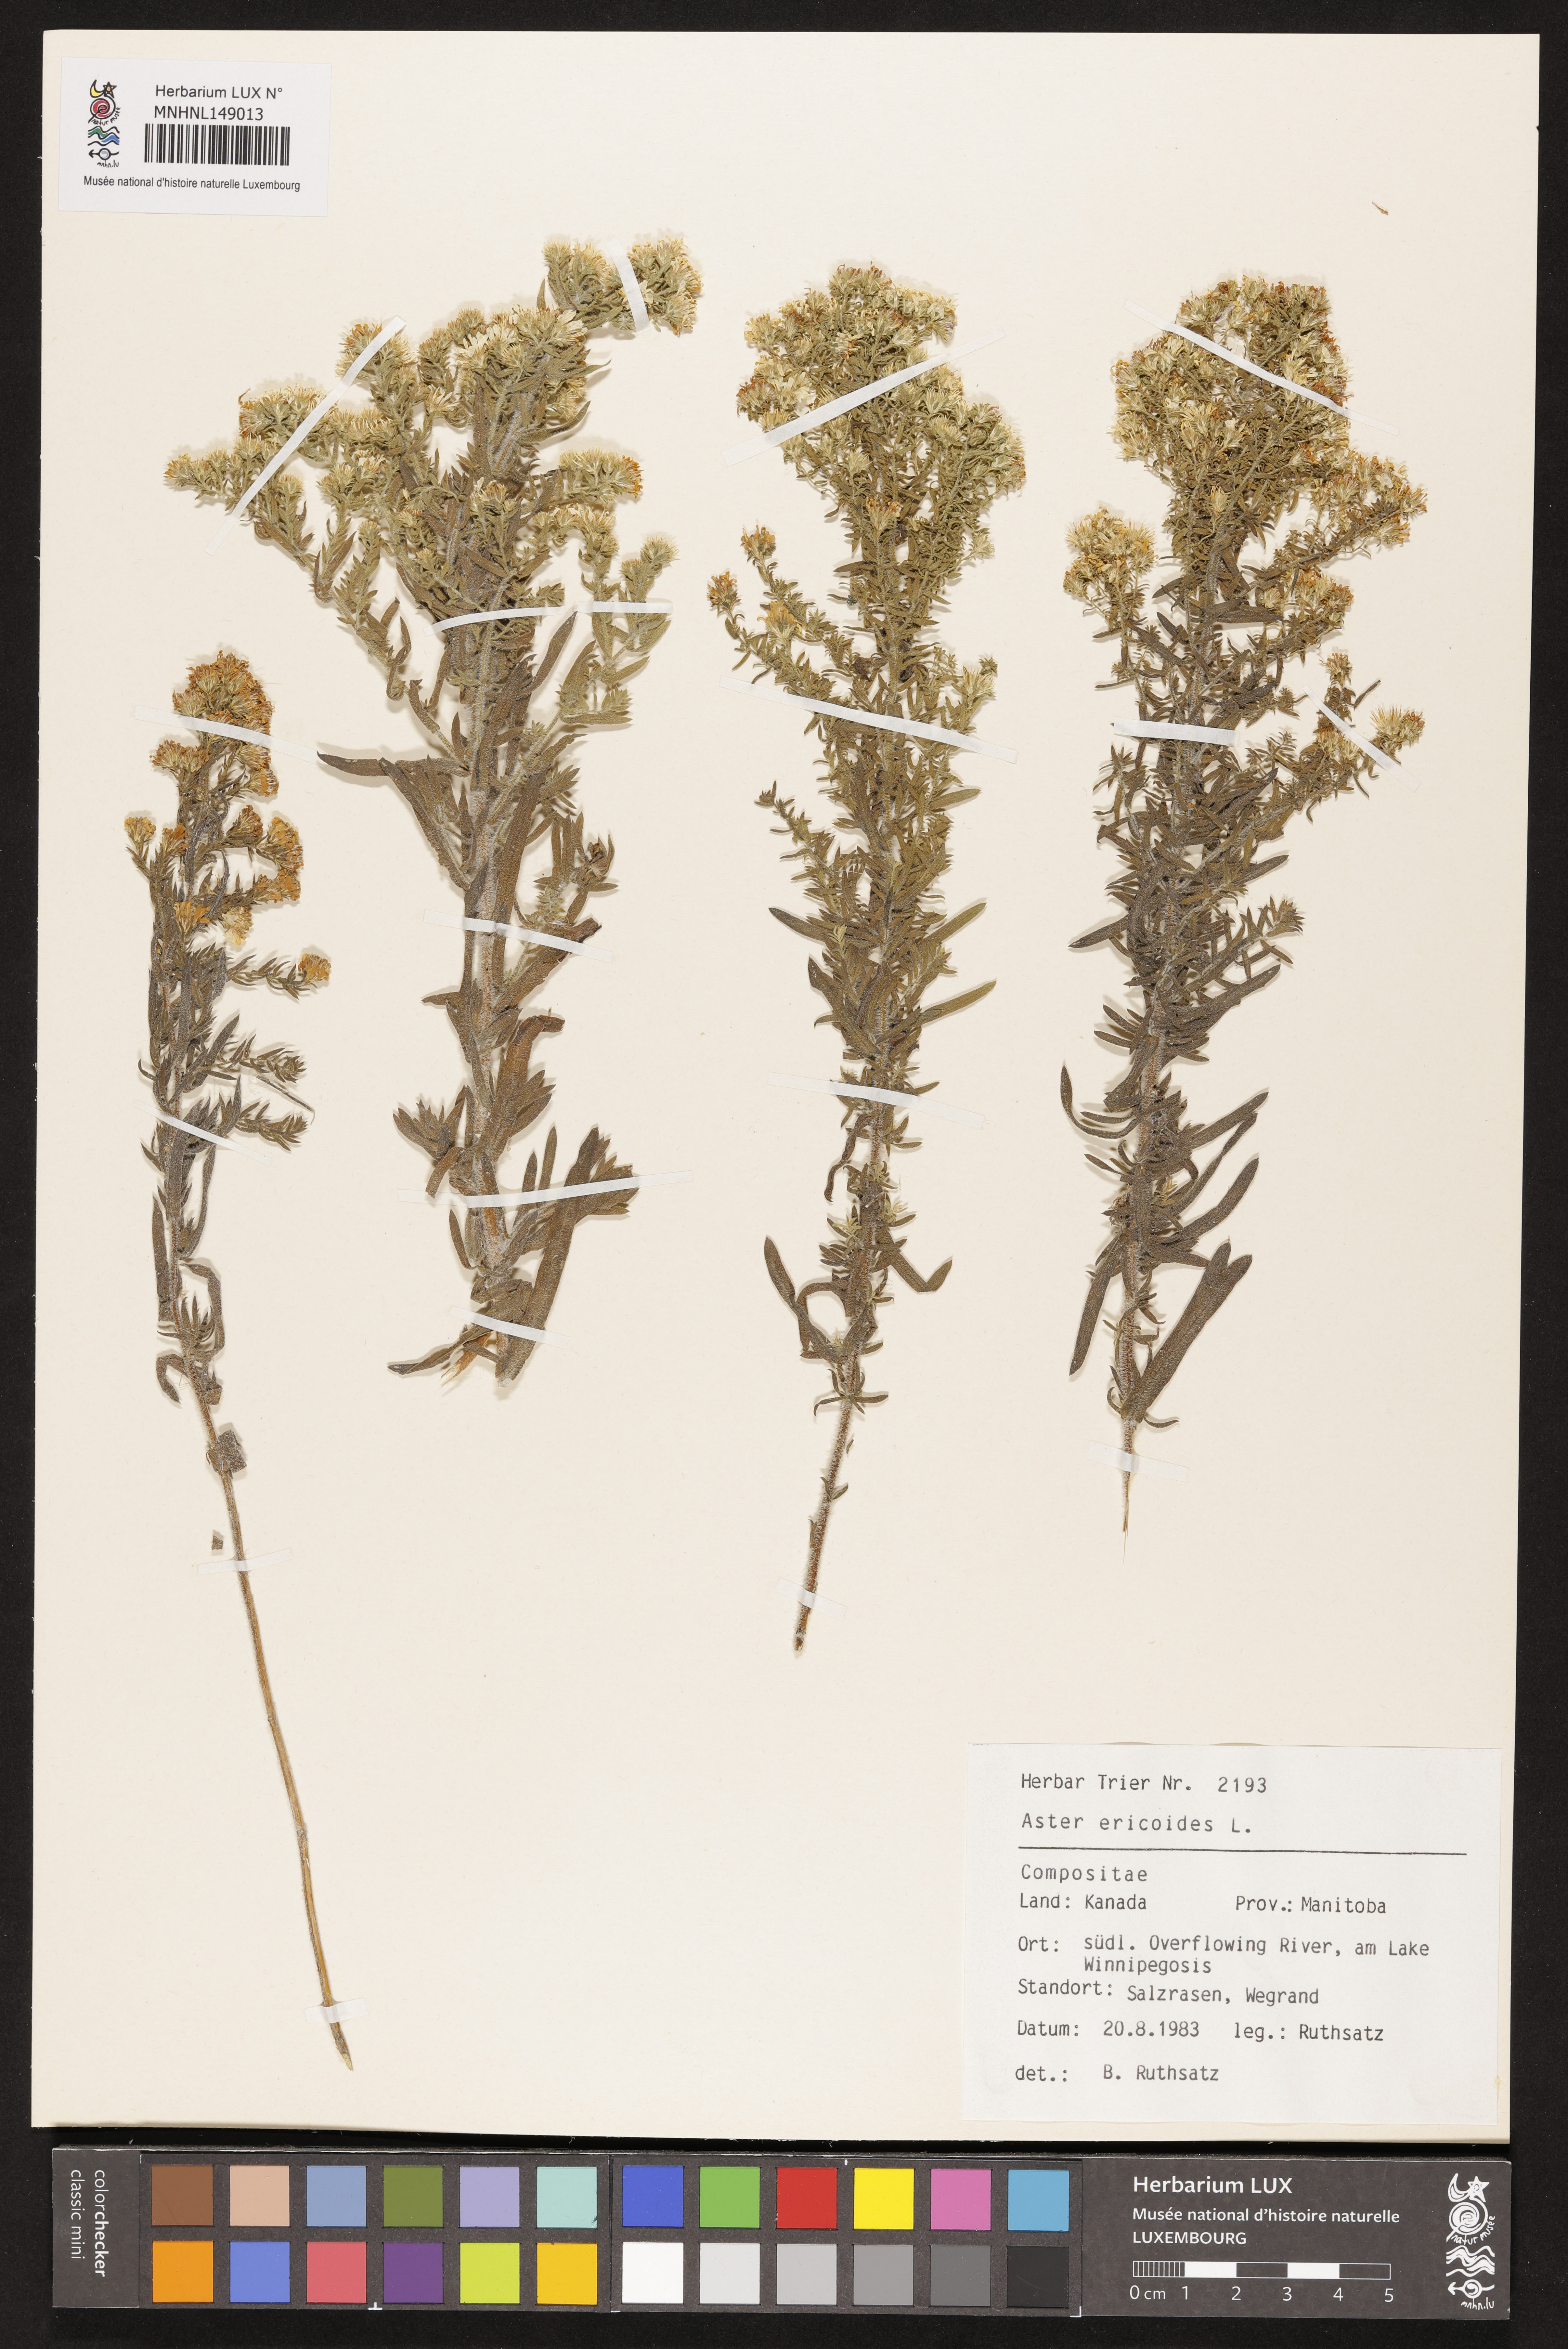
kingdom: Plantae
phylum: Tracheophyta
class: Magnoliopsida
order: Asterales
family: Asteraceae
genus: Symphyotrichum
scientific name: Symphyotrichum ericoides
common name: Heath aster
